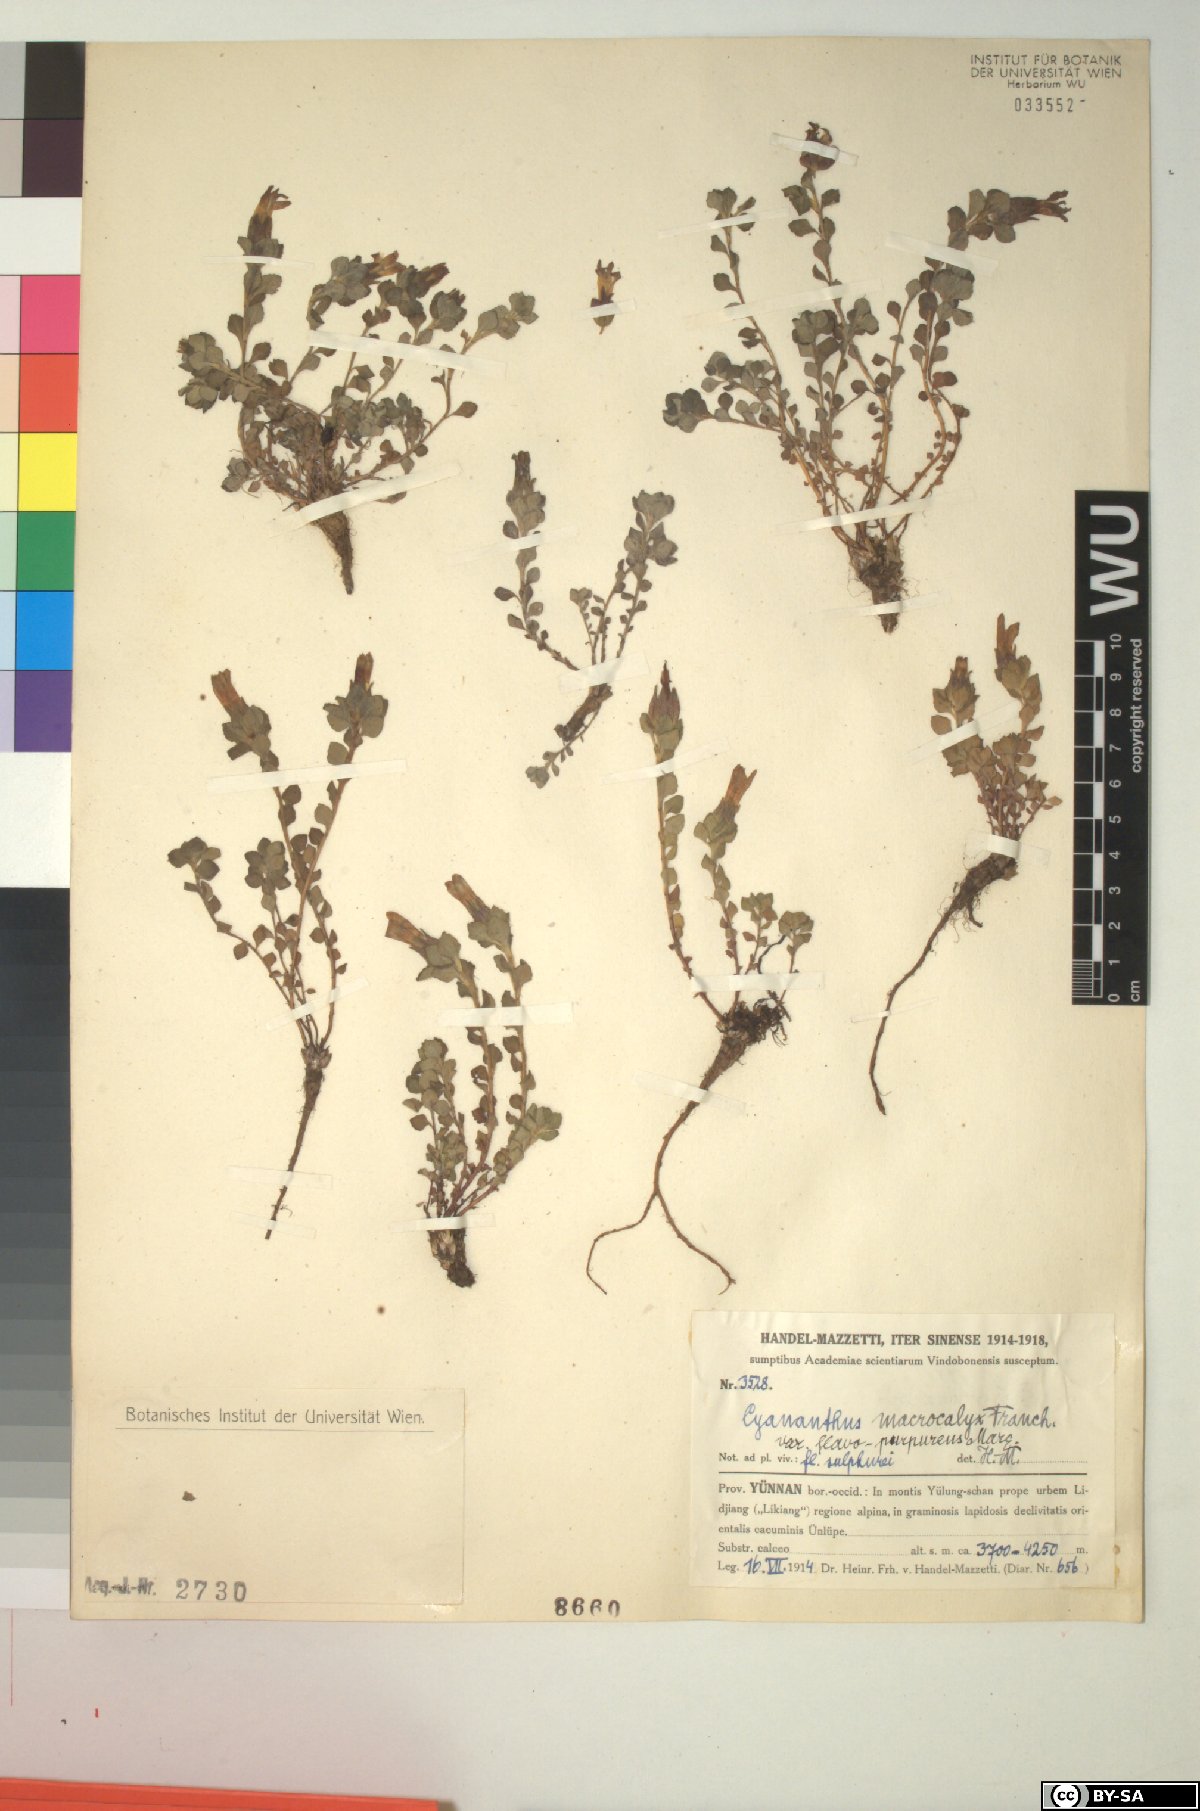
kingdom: Plantae
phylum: Tracheophyta
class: Magnoliopsida
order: Asterales
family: Campanulaceae
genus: Cyananthus
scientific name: Cyananthus macrocalyx
